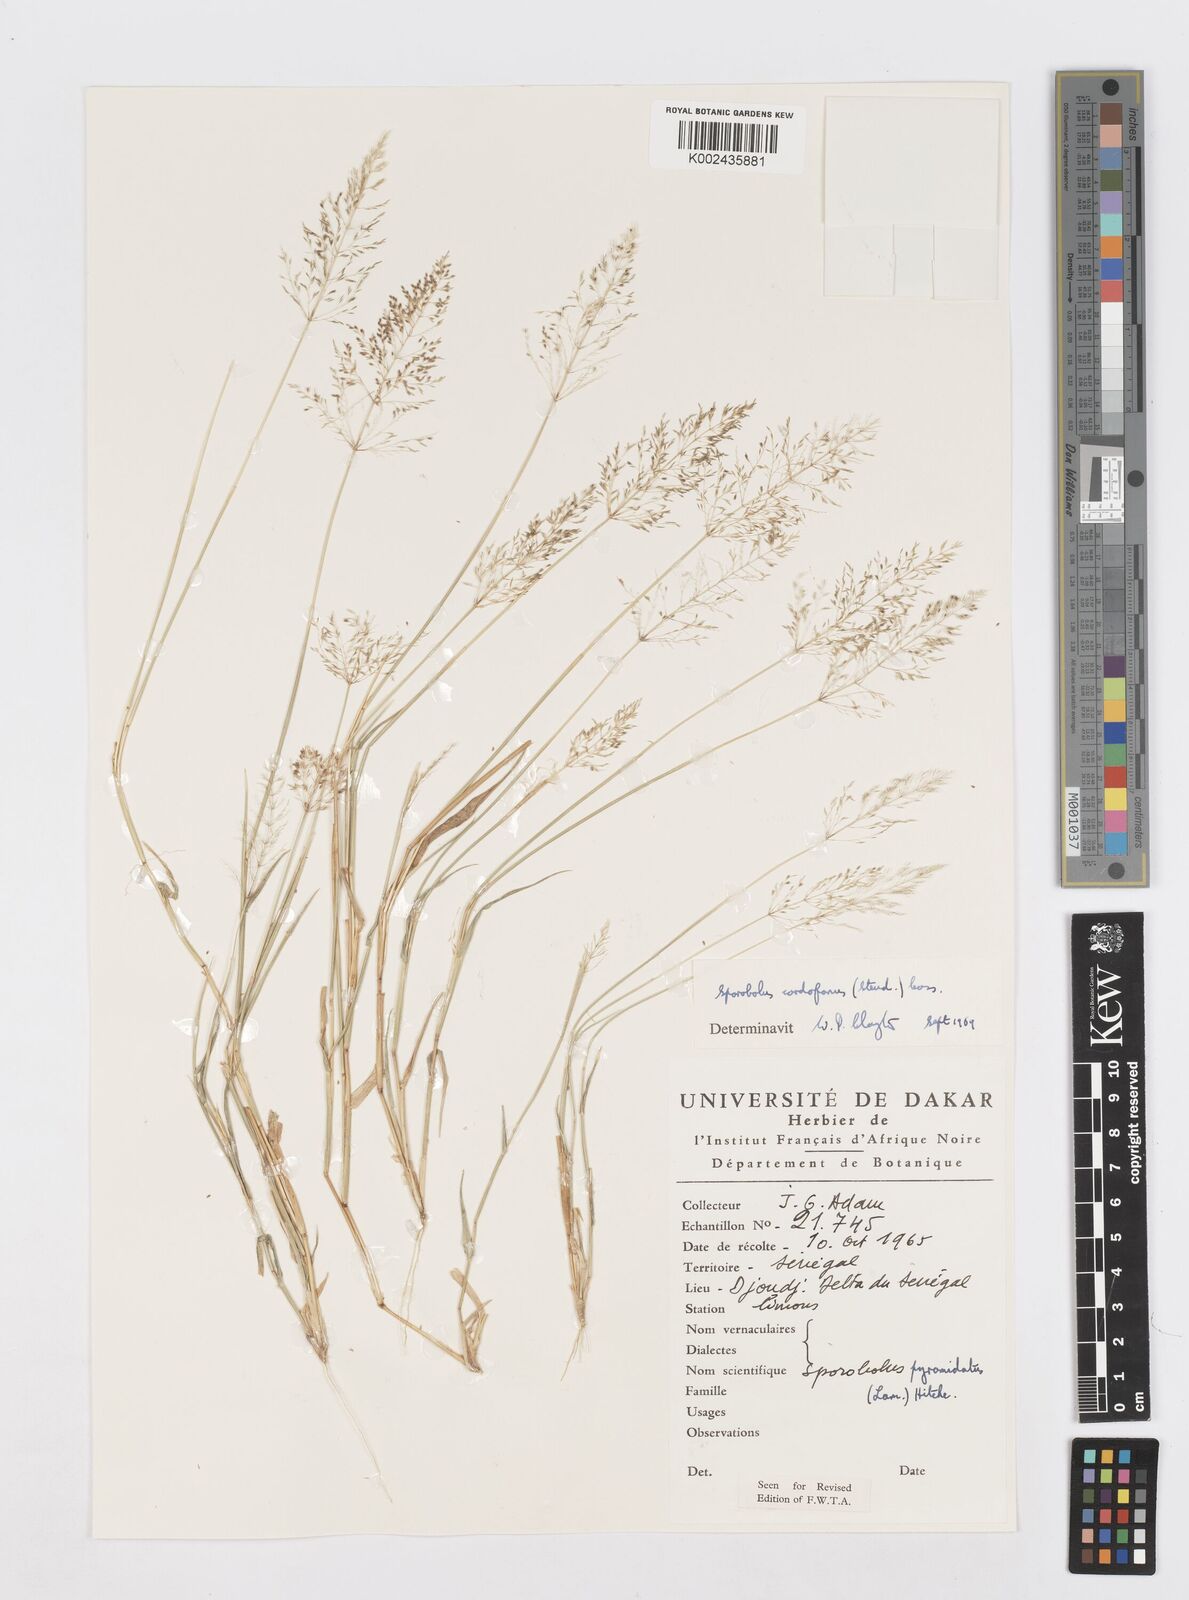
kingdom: Plantae
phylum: Tracheophyta
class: Liliopsida
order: Poales
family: Poaceae
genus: Sporobolus
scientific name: Sporobolus cordofanus
